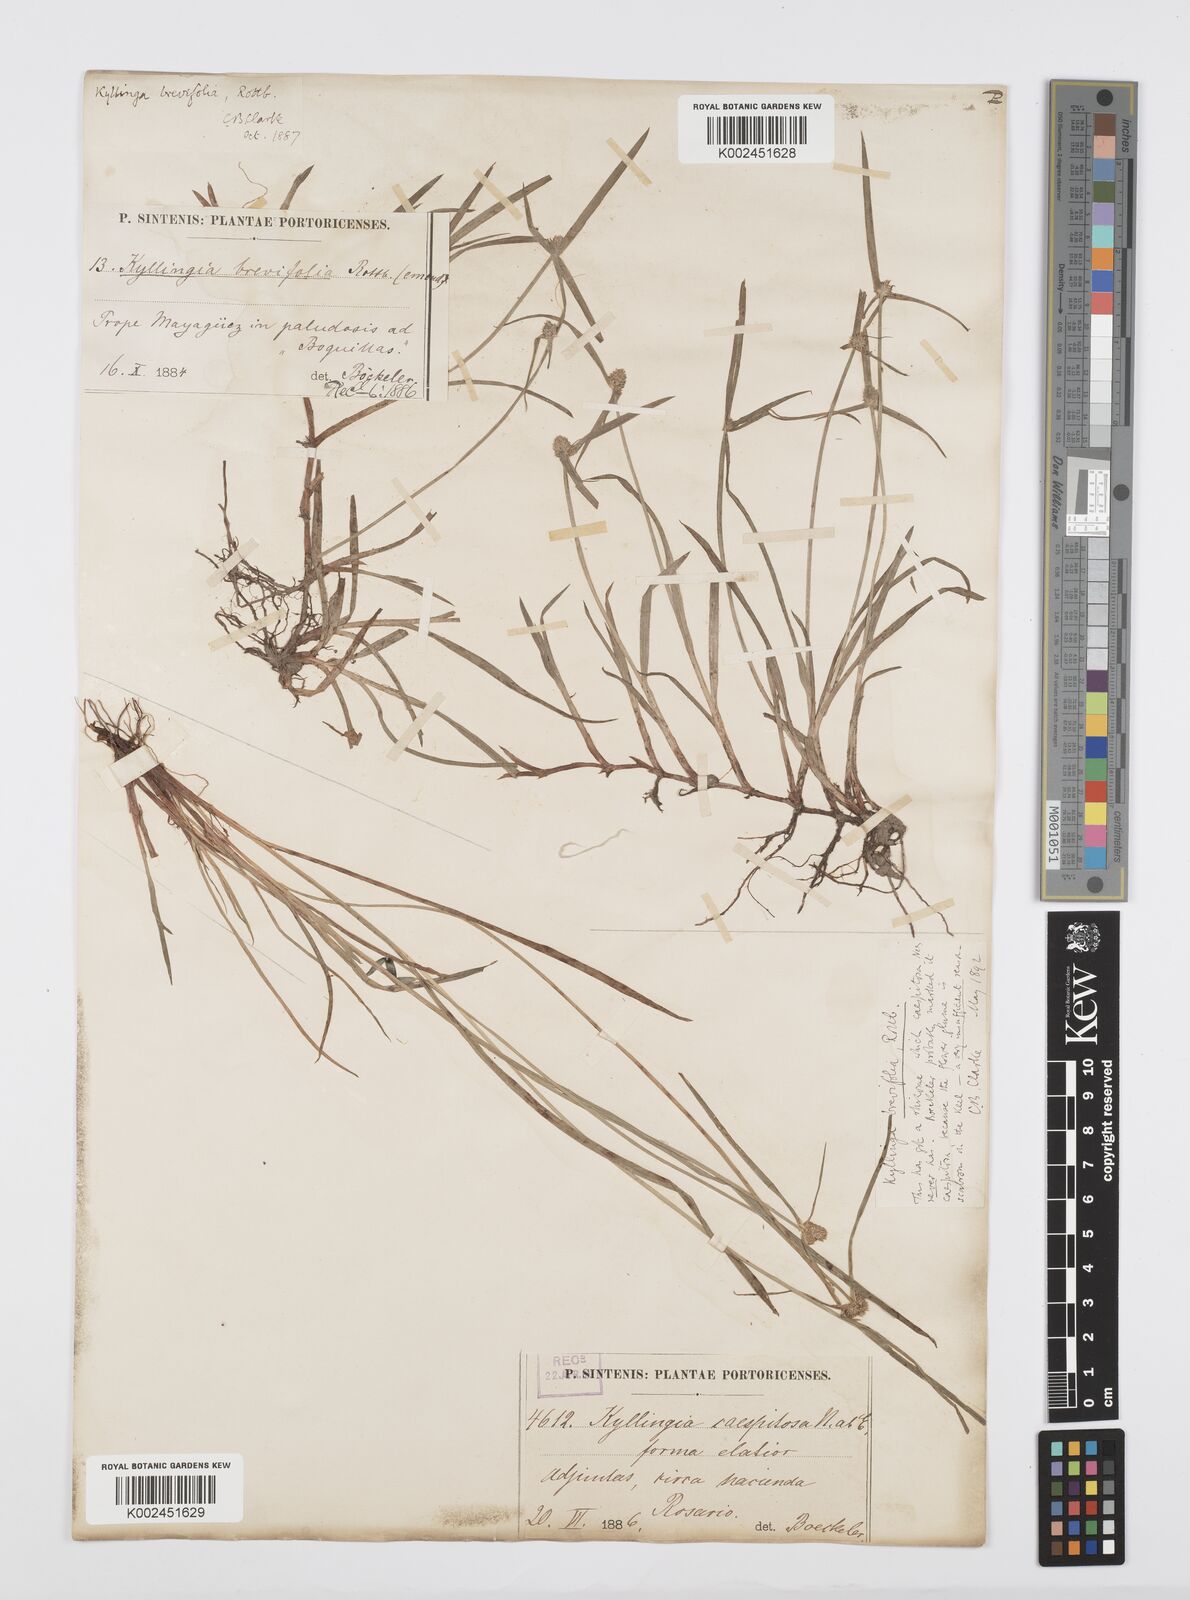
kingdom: Plantae
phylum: Tracheophyta
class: Liliopsida
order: Poales
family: Cyperaceae
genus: Cyperus
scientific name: Cyperus brevifolius
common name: Globe kyllinga
